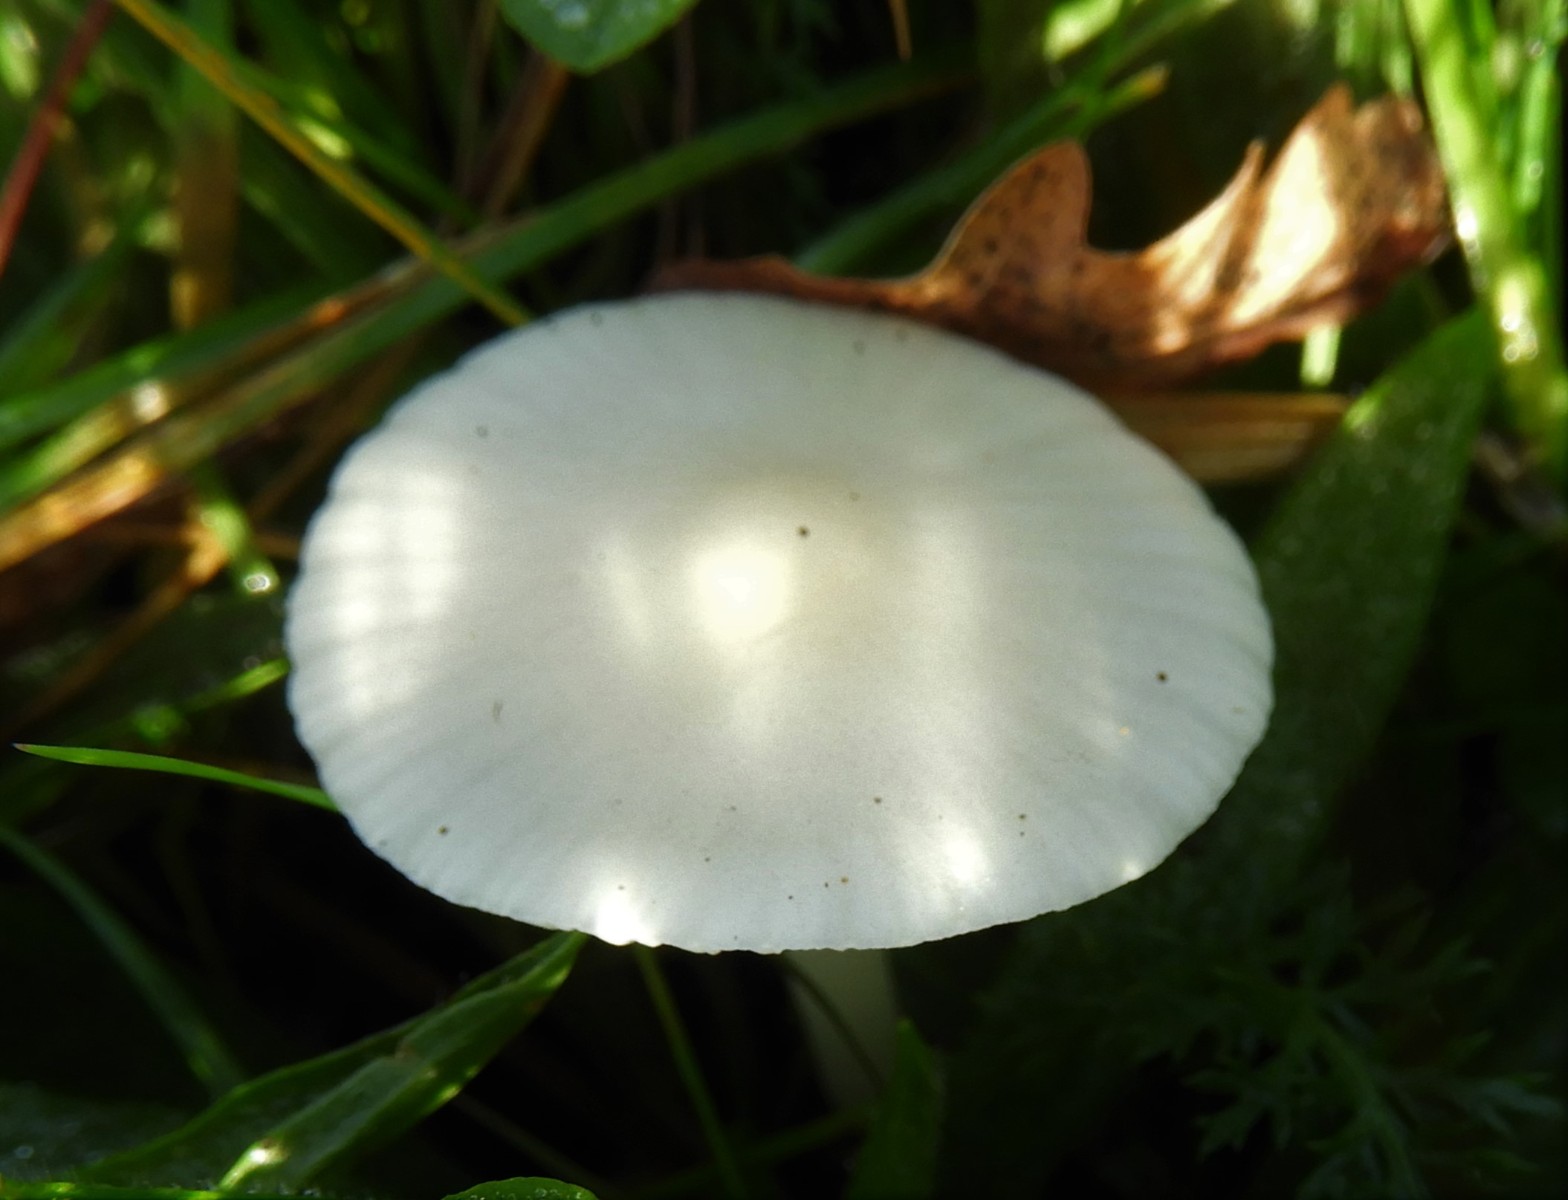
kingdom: Fungi
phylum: Basidiomycota
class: Agaricomycetes
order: Agaricales
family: Hygrophoraceae
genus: Cuphophyllus
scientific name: Cuphophyllus
